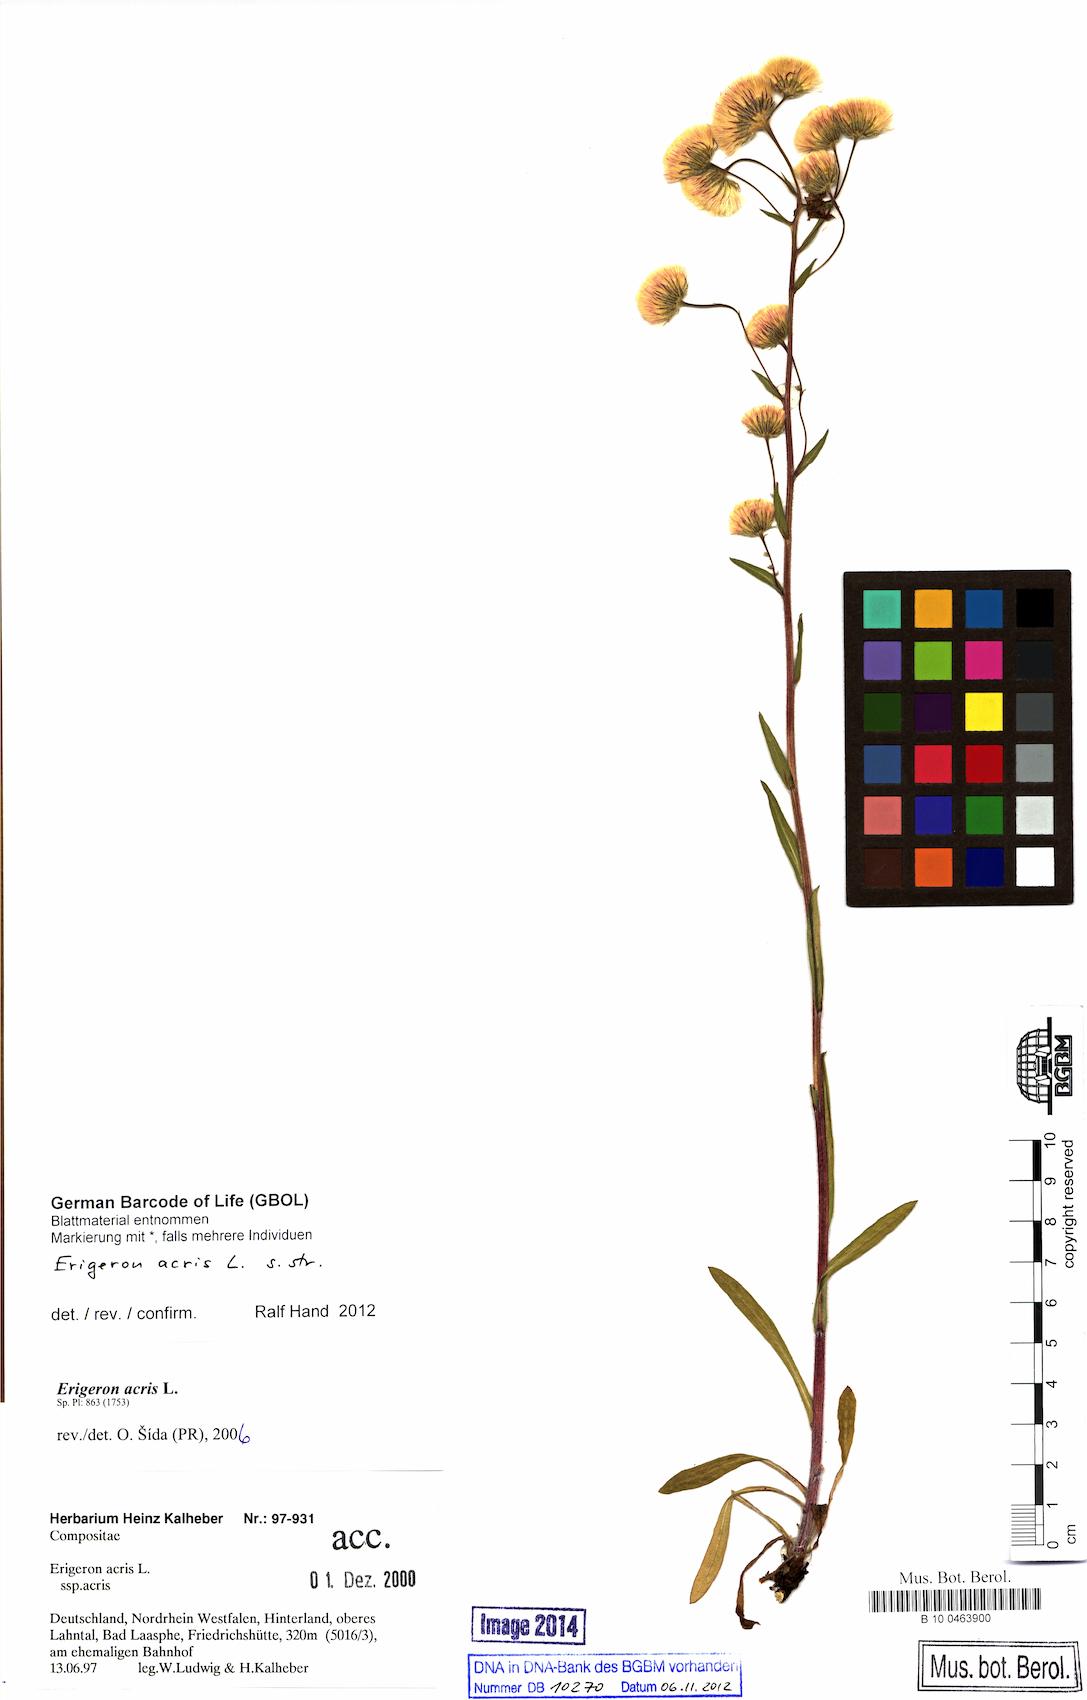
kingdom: Plantae
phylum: Tracheophyta
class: Magnoliopsida
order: Asterales
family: Asteraceae
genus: Erigeron
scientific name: Erigeron acris
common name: Blue fleabane
